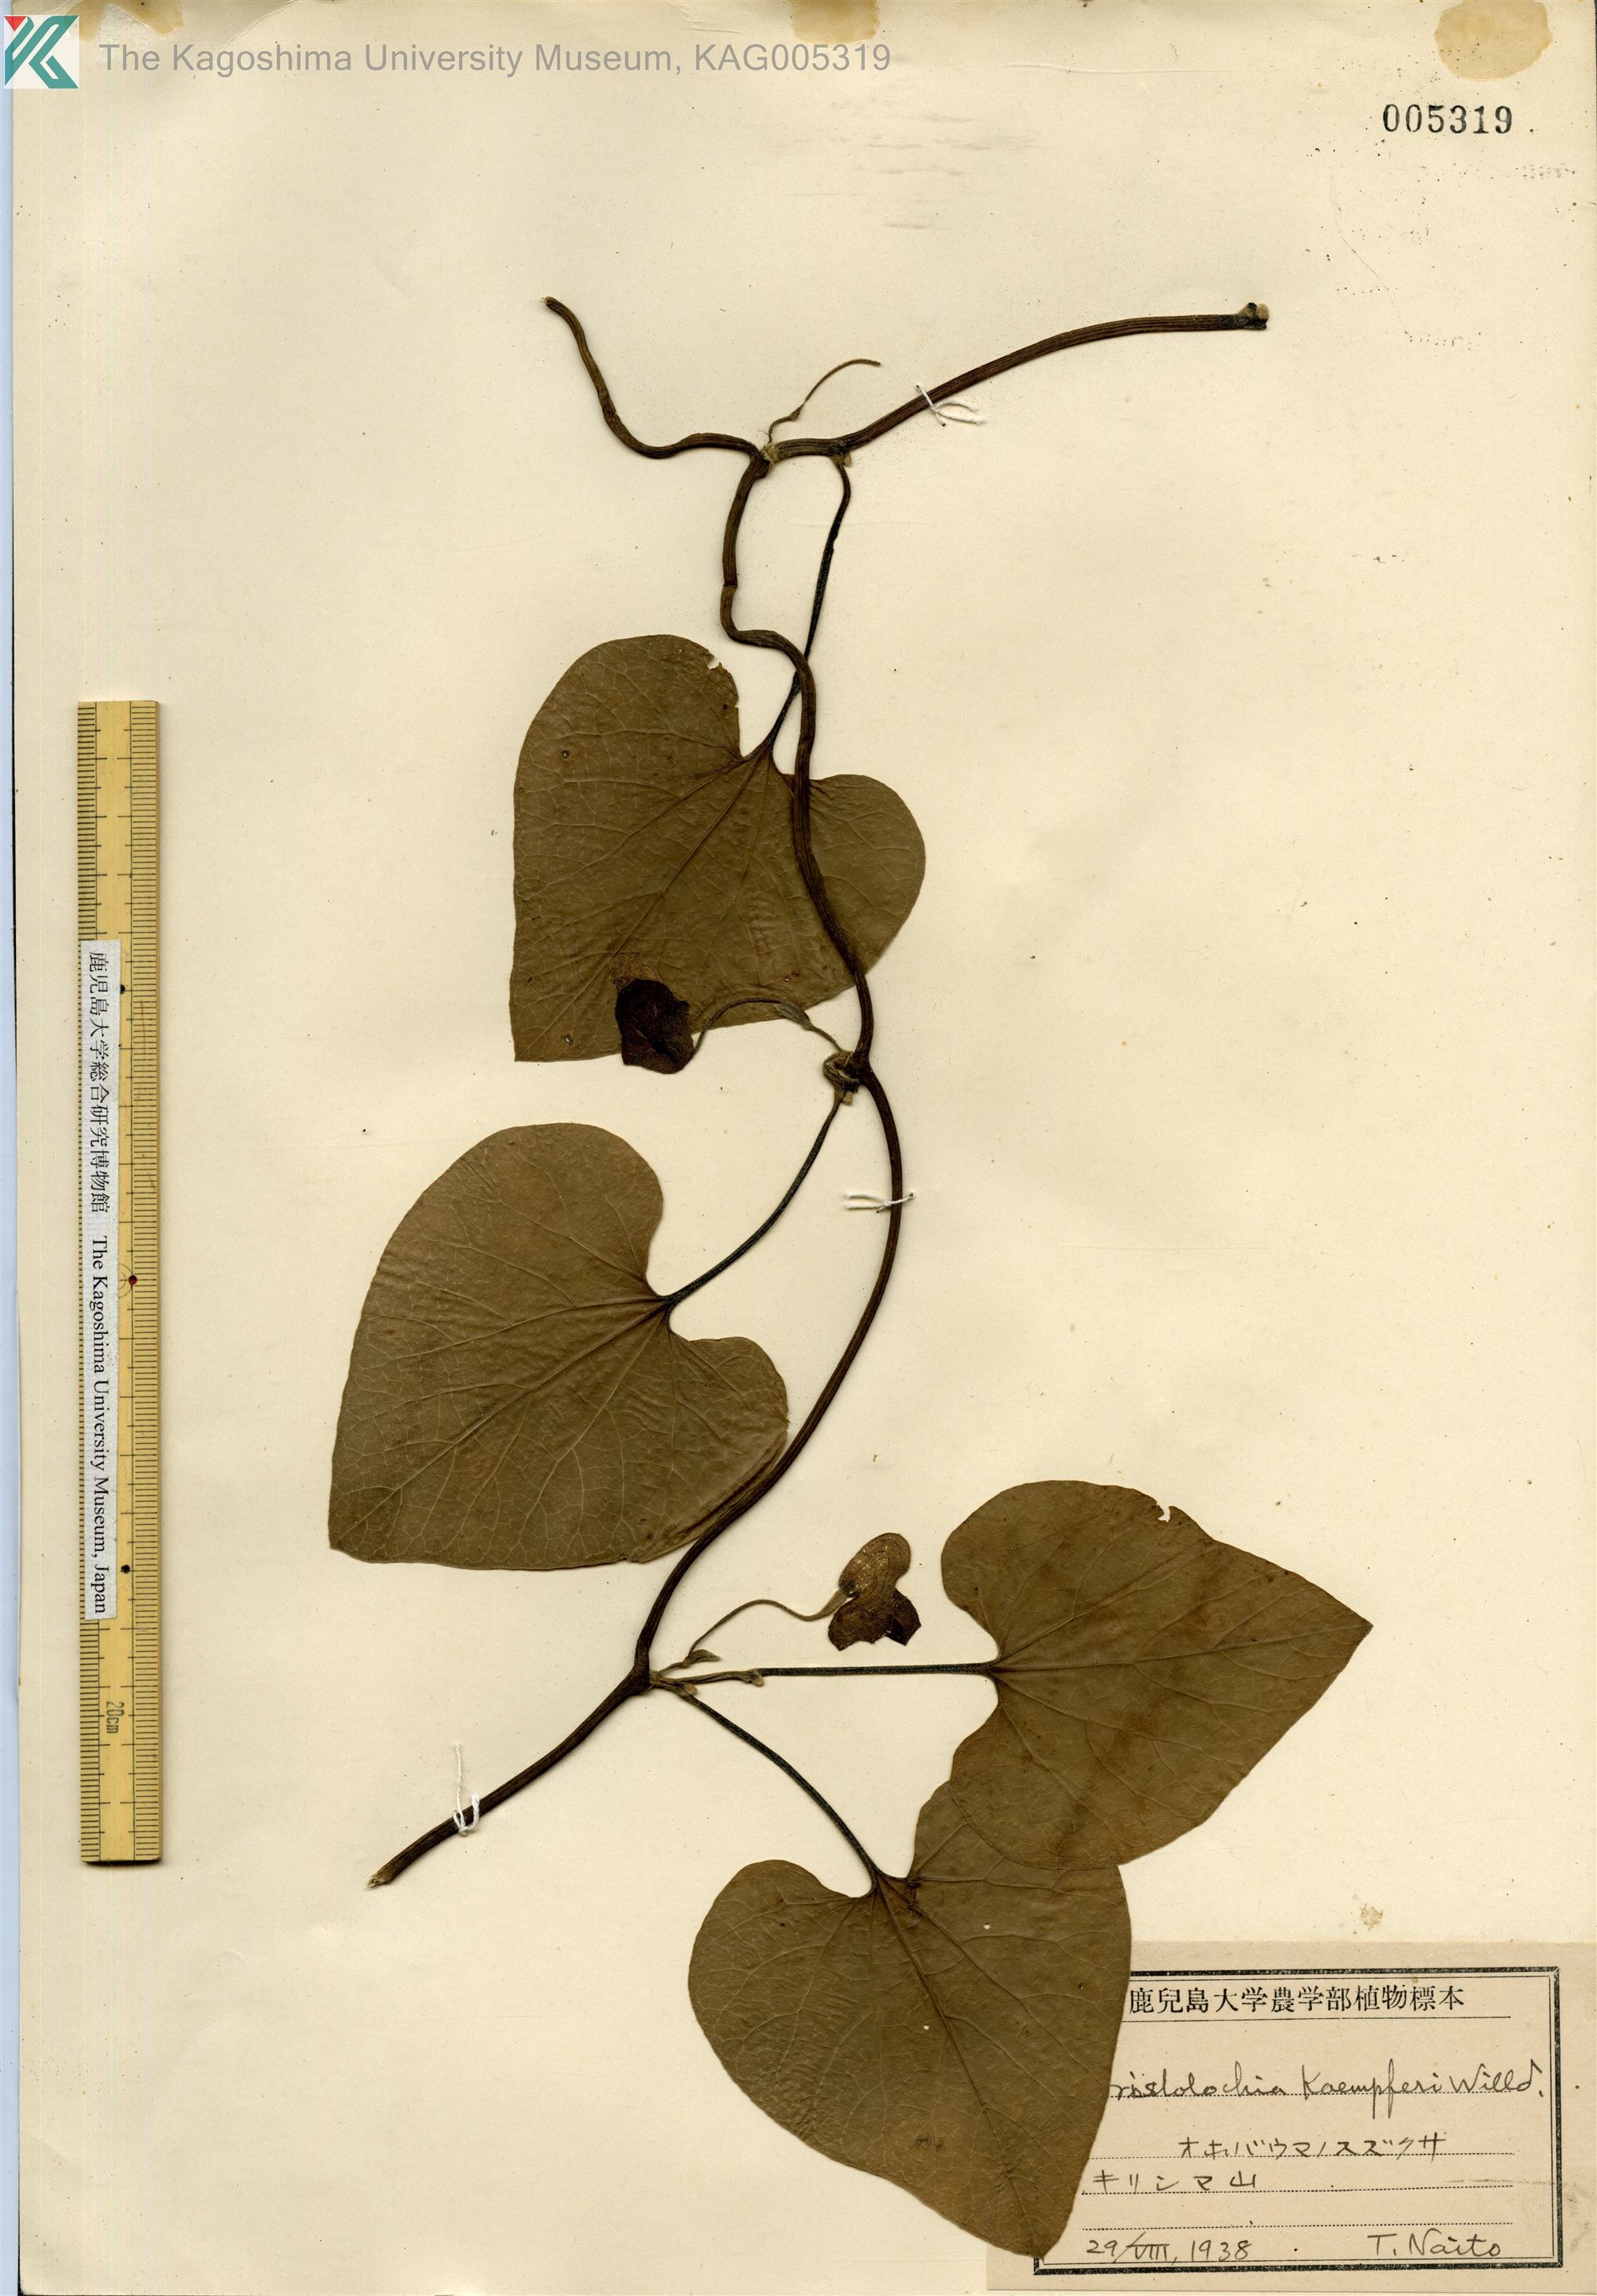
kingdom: Plantae
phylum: Tracheophyta
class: Magnoliopsida
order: Piperales
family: Aristolochiaceae
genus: Isotrema
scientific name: Isotrema kaempferi
